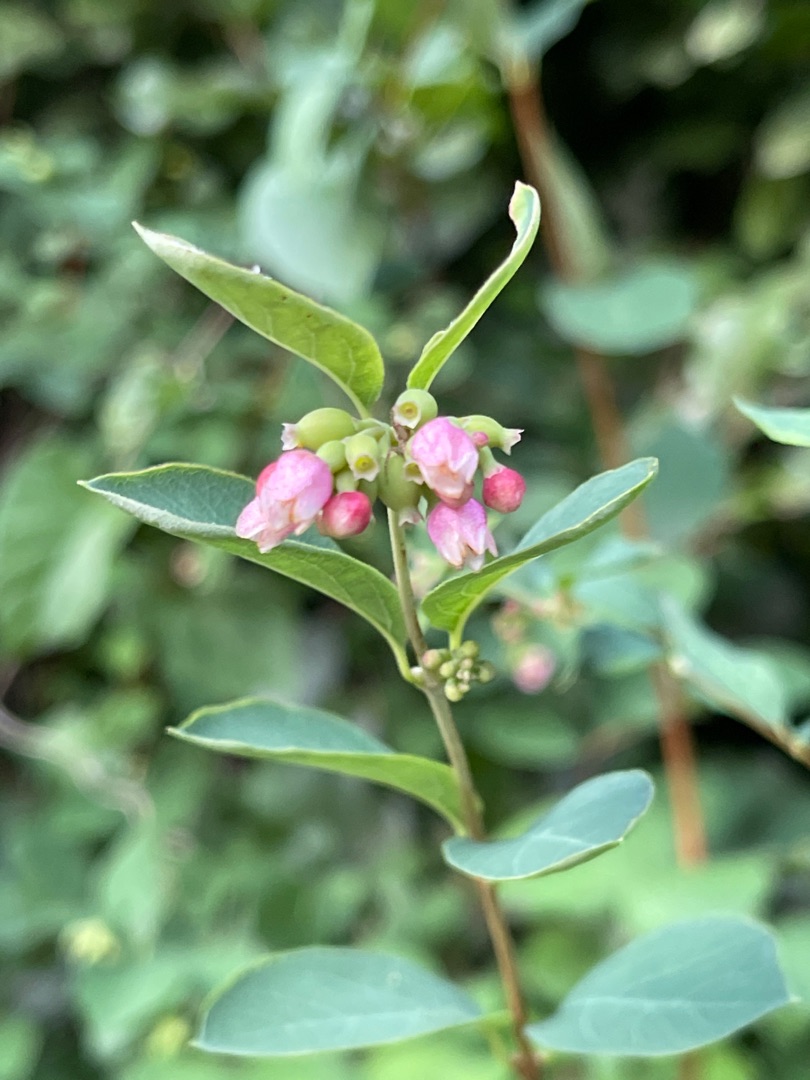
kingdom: Plantae
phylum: Tracheophyta
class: Magnoliopsida
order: Dipsacales
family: Caprifoliaceae
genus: Symphoricarpos
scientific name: Symphoricarpos albus
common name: Almindelig snebær
